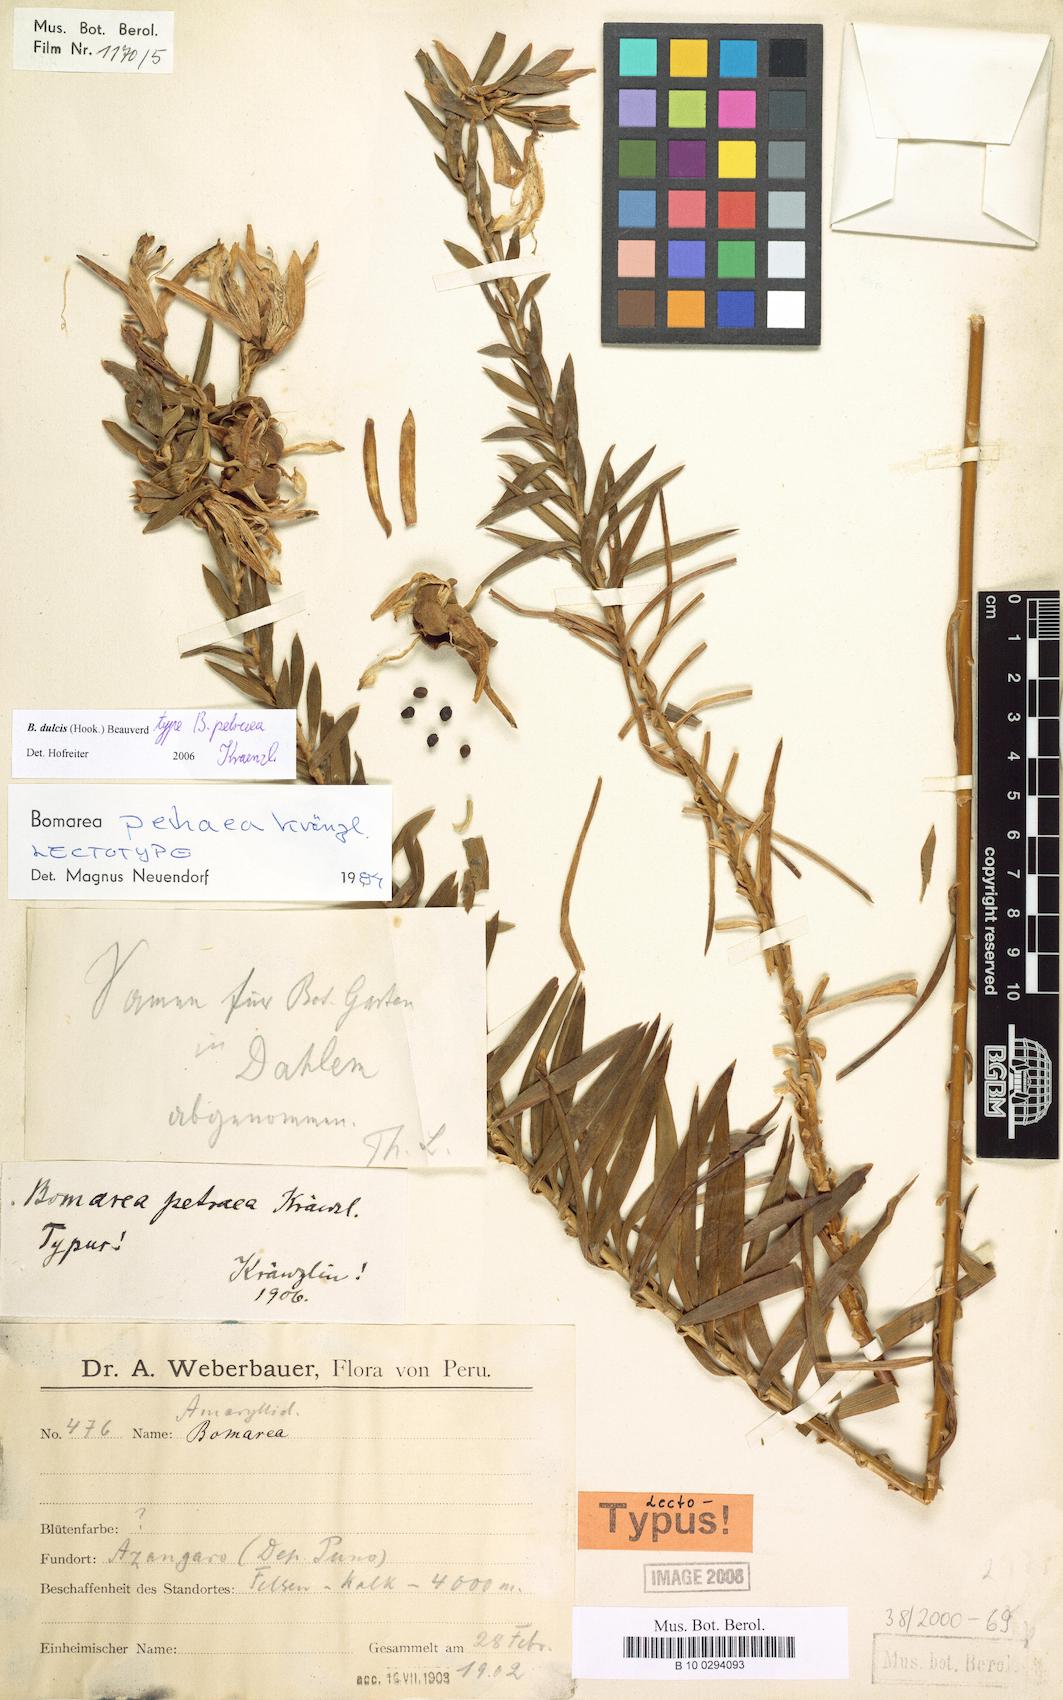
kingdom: Plantae
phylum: Tracheophyta
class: Liliopsida
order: Liliales
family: Alstroemeriaceae
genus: Bomarea
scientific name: Bomarea dulcis
